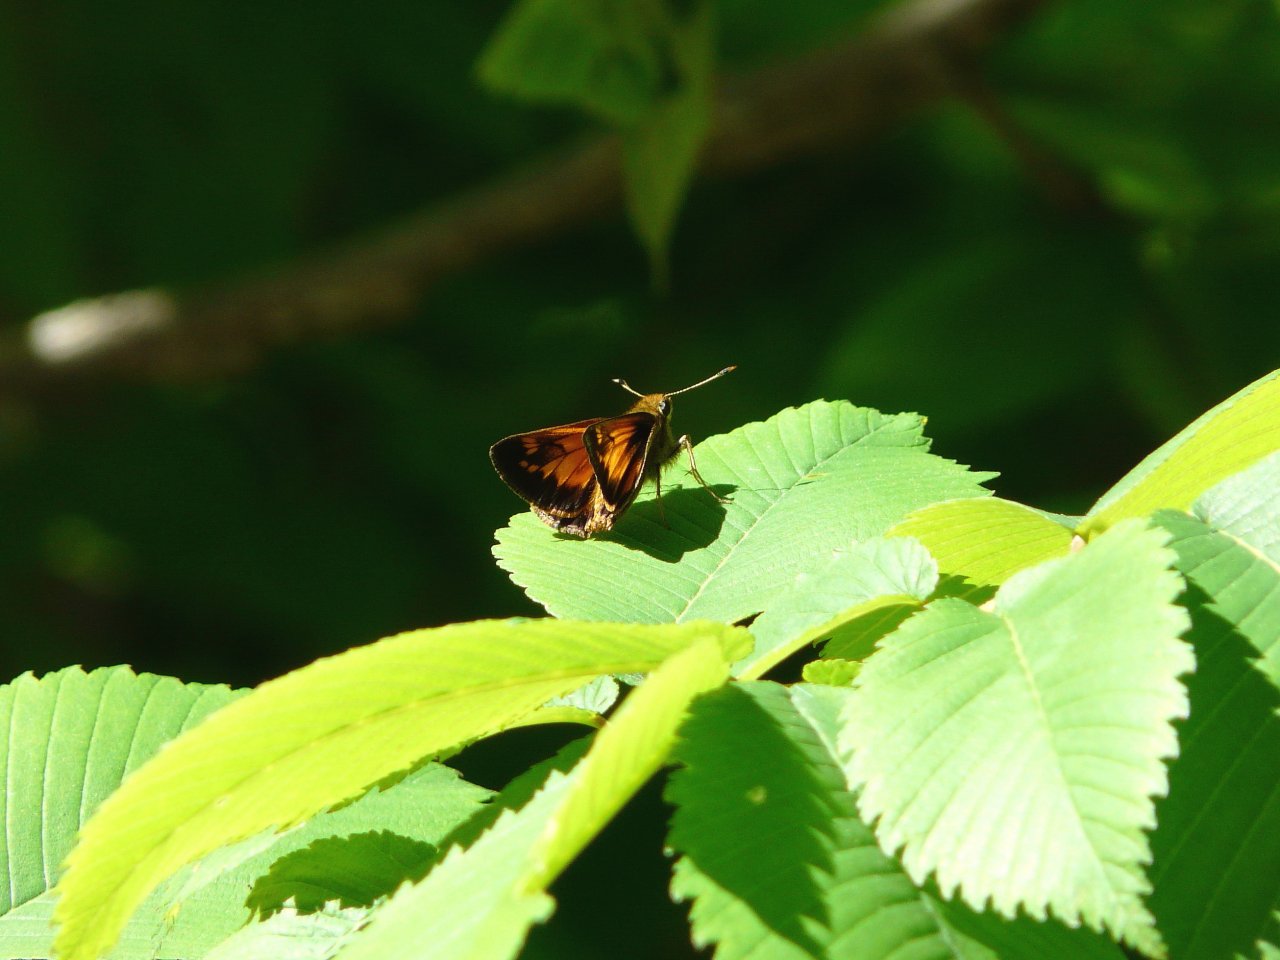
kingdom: Animalia
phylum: Arthropoda
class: Insecta
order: Lepidoptera
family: Hesperiidae
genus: Lon
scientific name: Lon hobomok
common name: Hobomok Skipper
